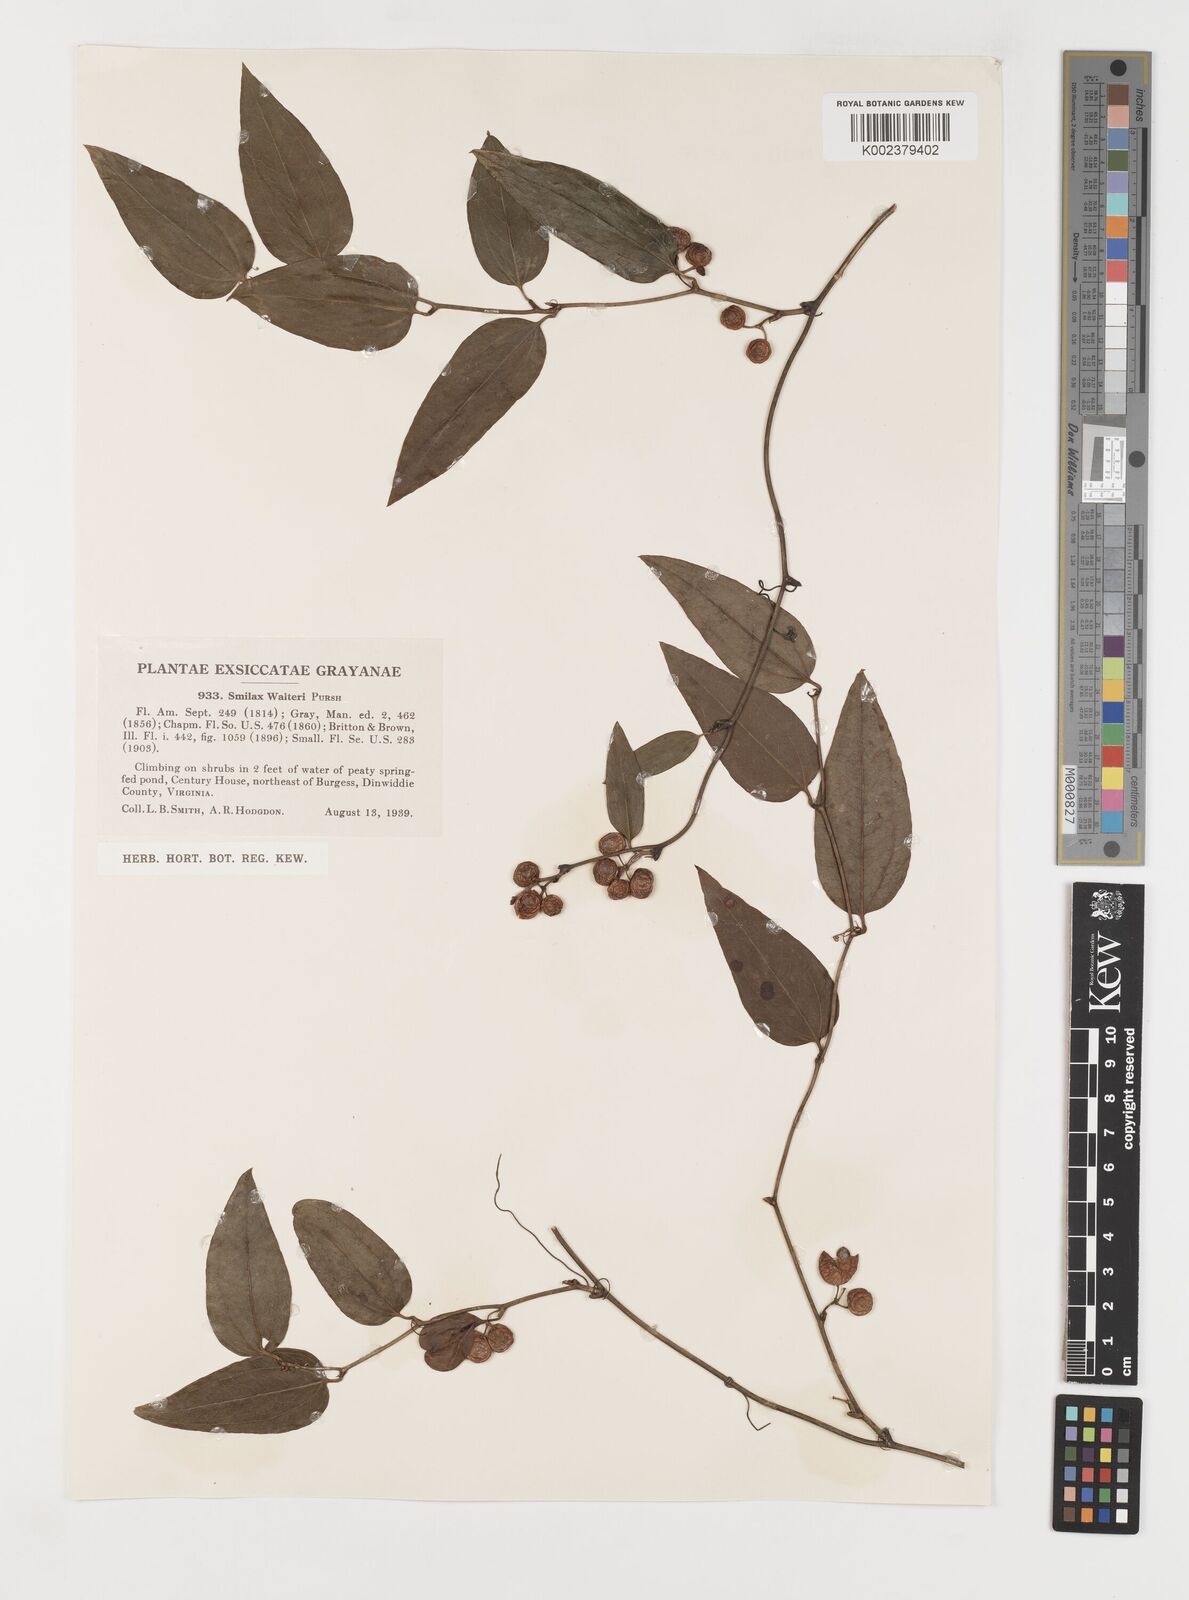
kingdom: Plantae
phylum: Tracheophyta
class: Liliopsida
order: Liliales
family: Smilacaceae
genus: Smilax
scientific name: Smilax walteri
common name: Coral greenbrier
